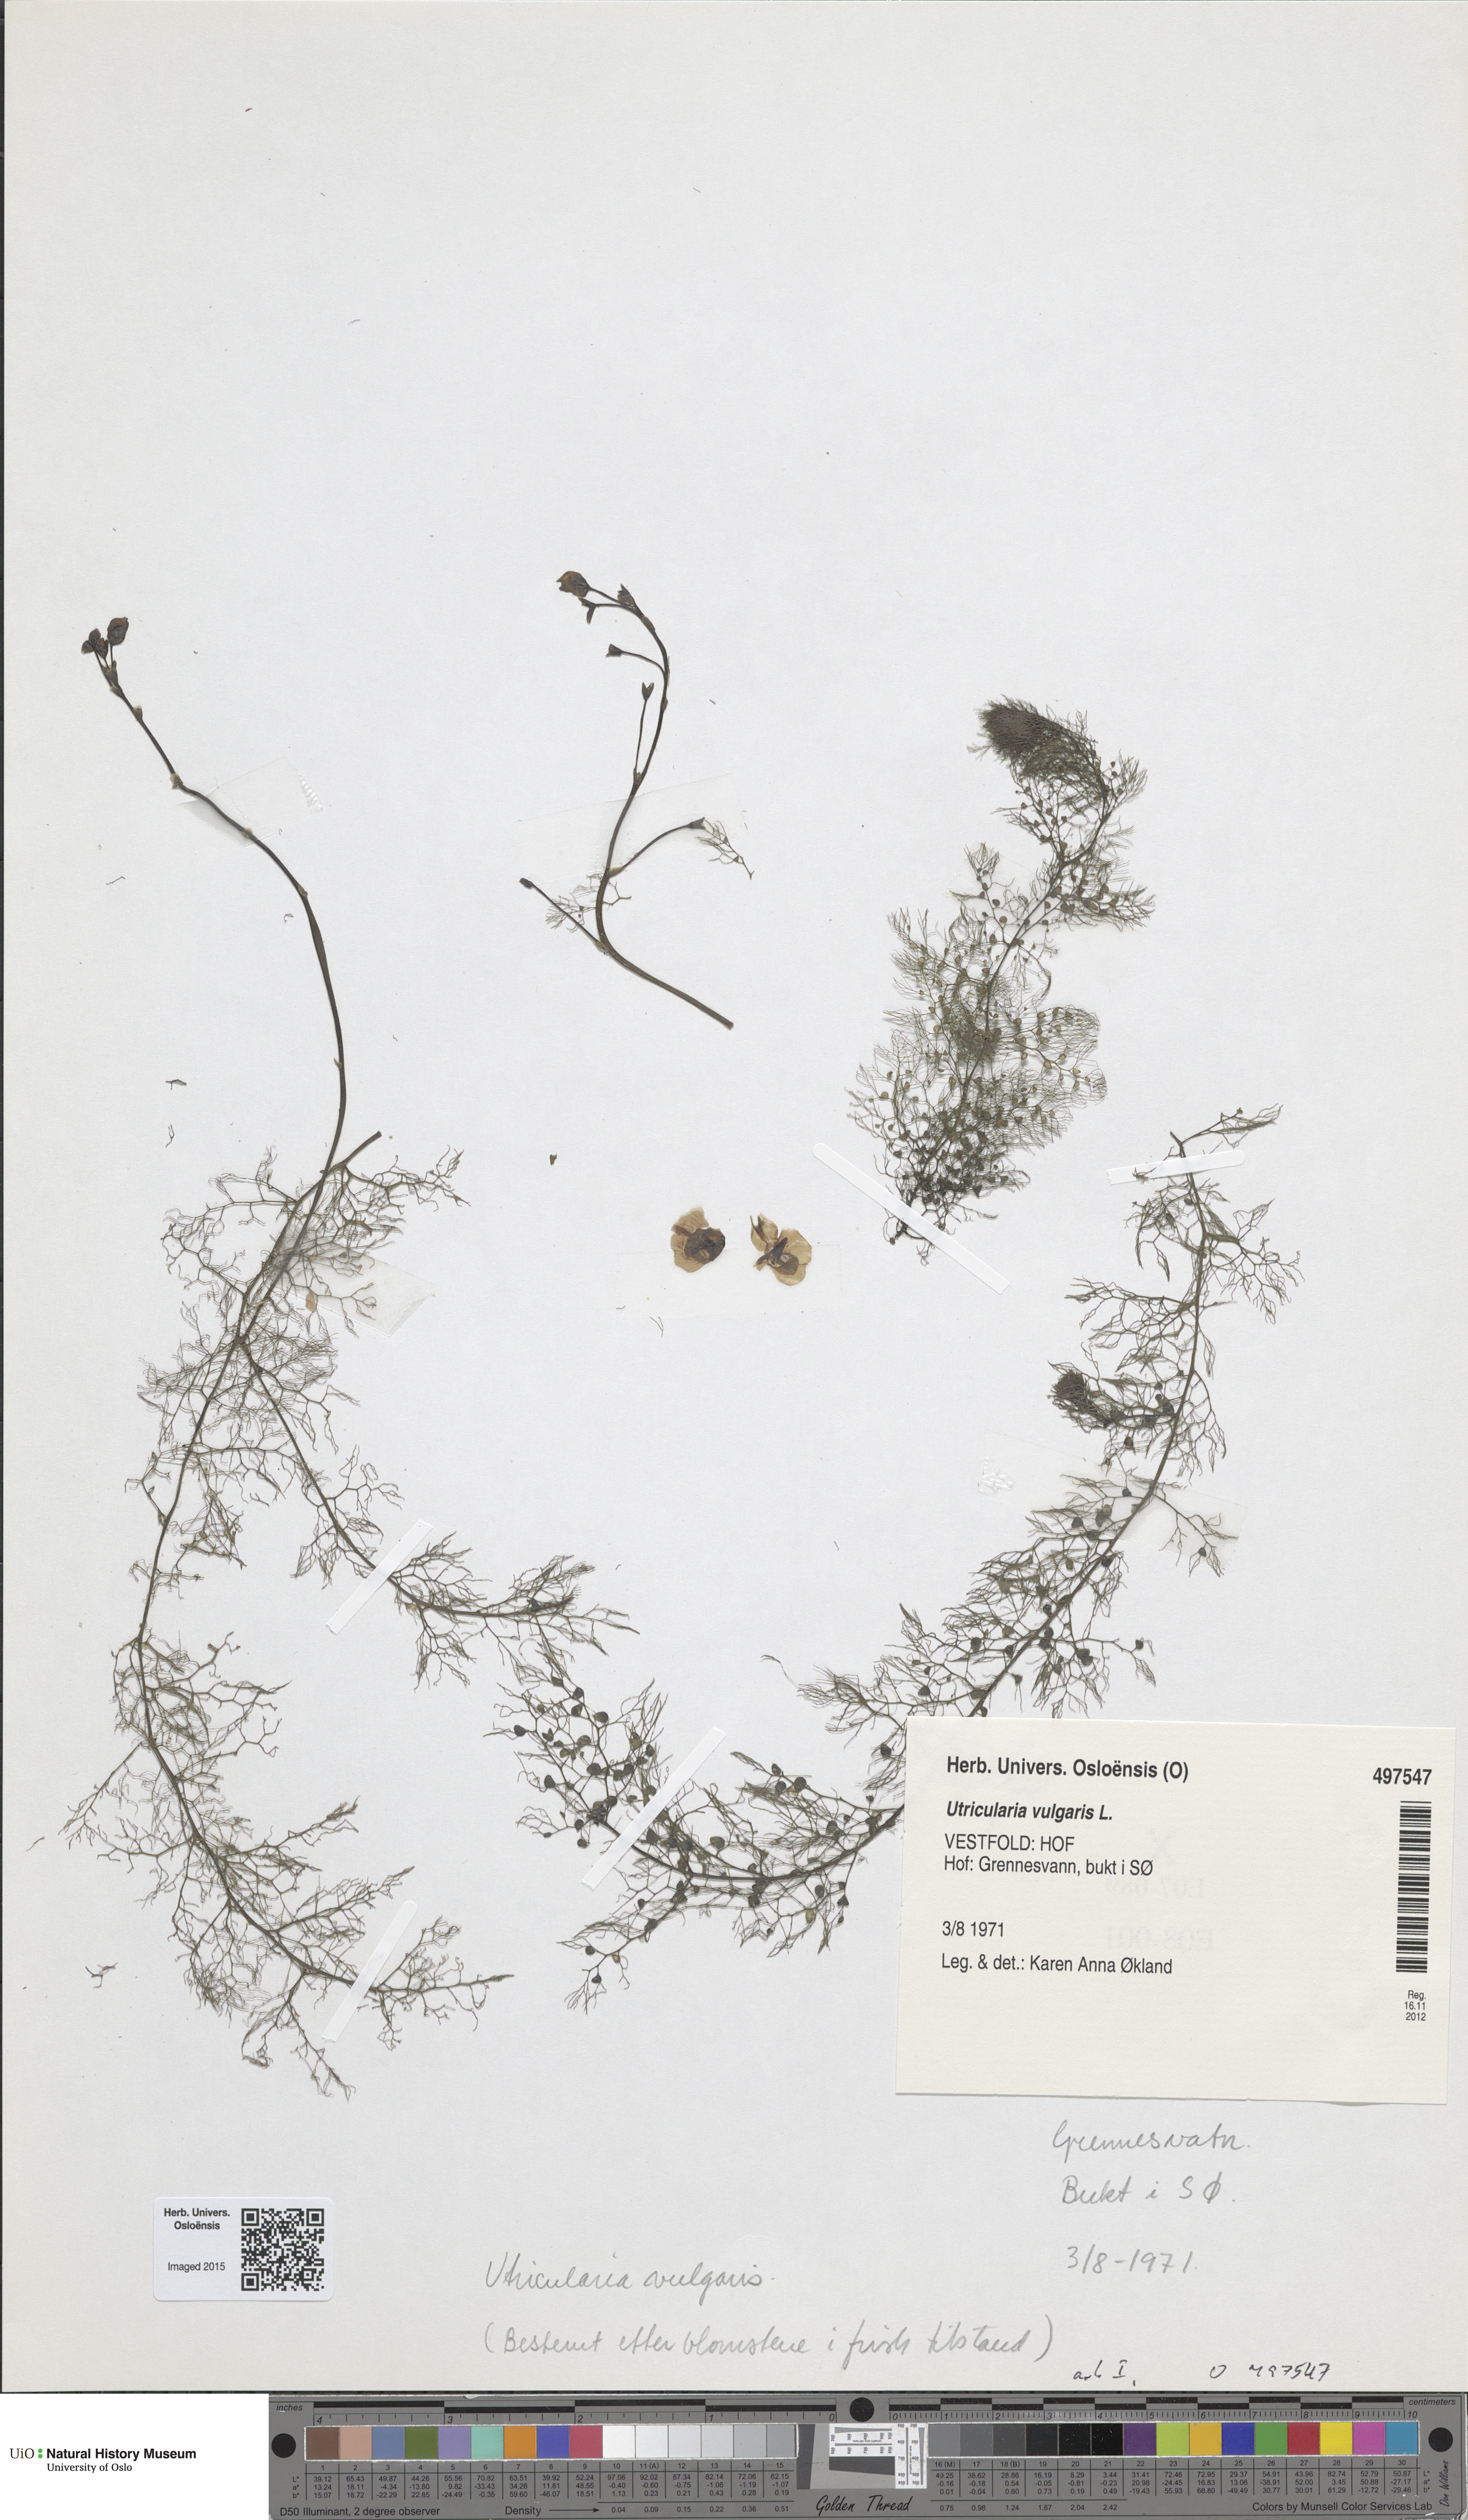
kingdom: Plantae
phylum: Tracheophyta
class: Magnoliopsida
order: Lamiales
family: Lentibulariaceae
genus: Utricularia
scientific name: Utricularia vulgaris
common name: Greater bladderwort
